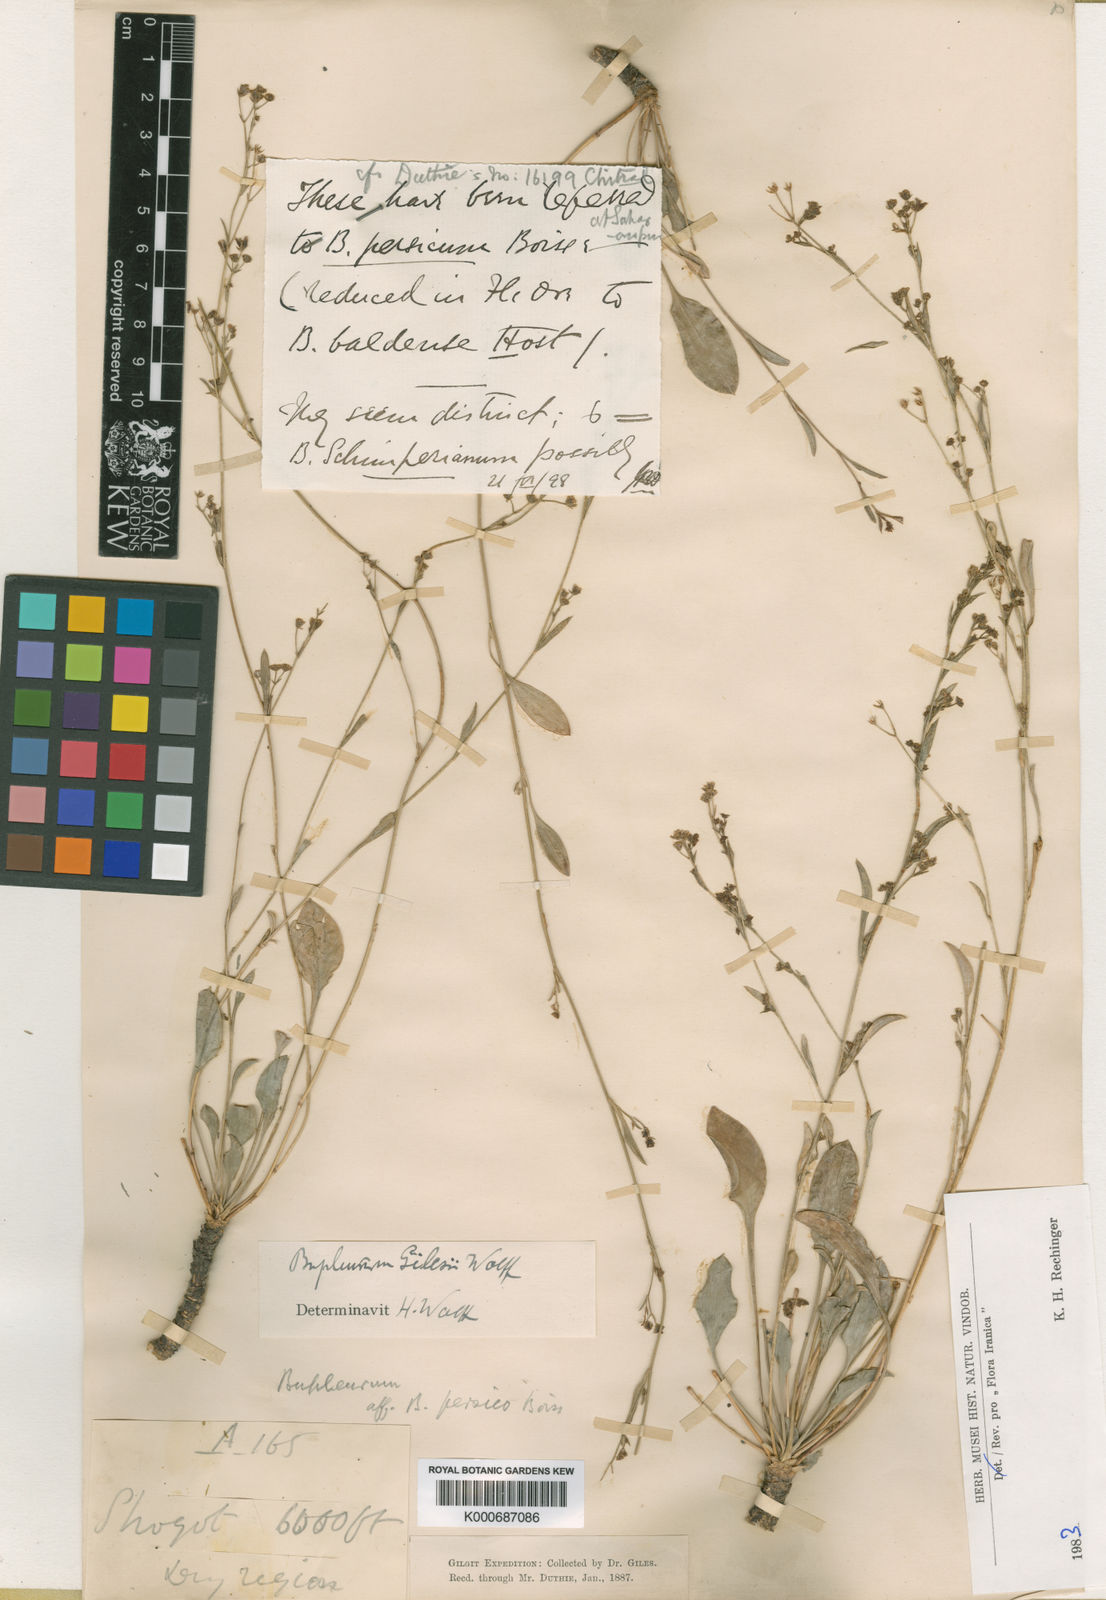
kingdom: Plantae
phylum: Tracheophyta
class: Magnoliopsida
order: Apiales
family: Apiaceae
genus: Bupleurum
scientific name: Bupleurum gilesii
